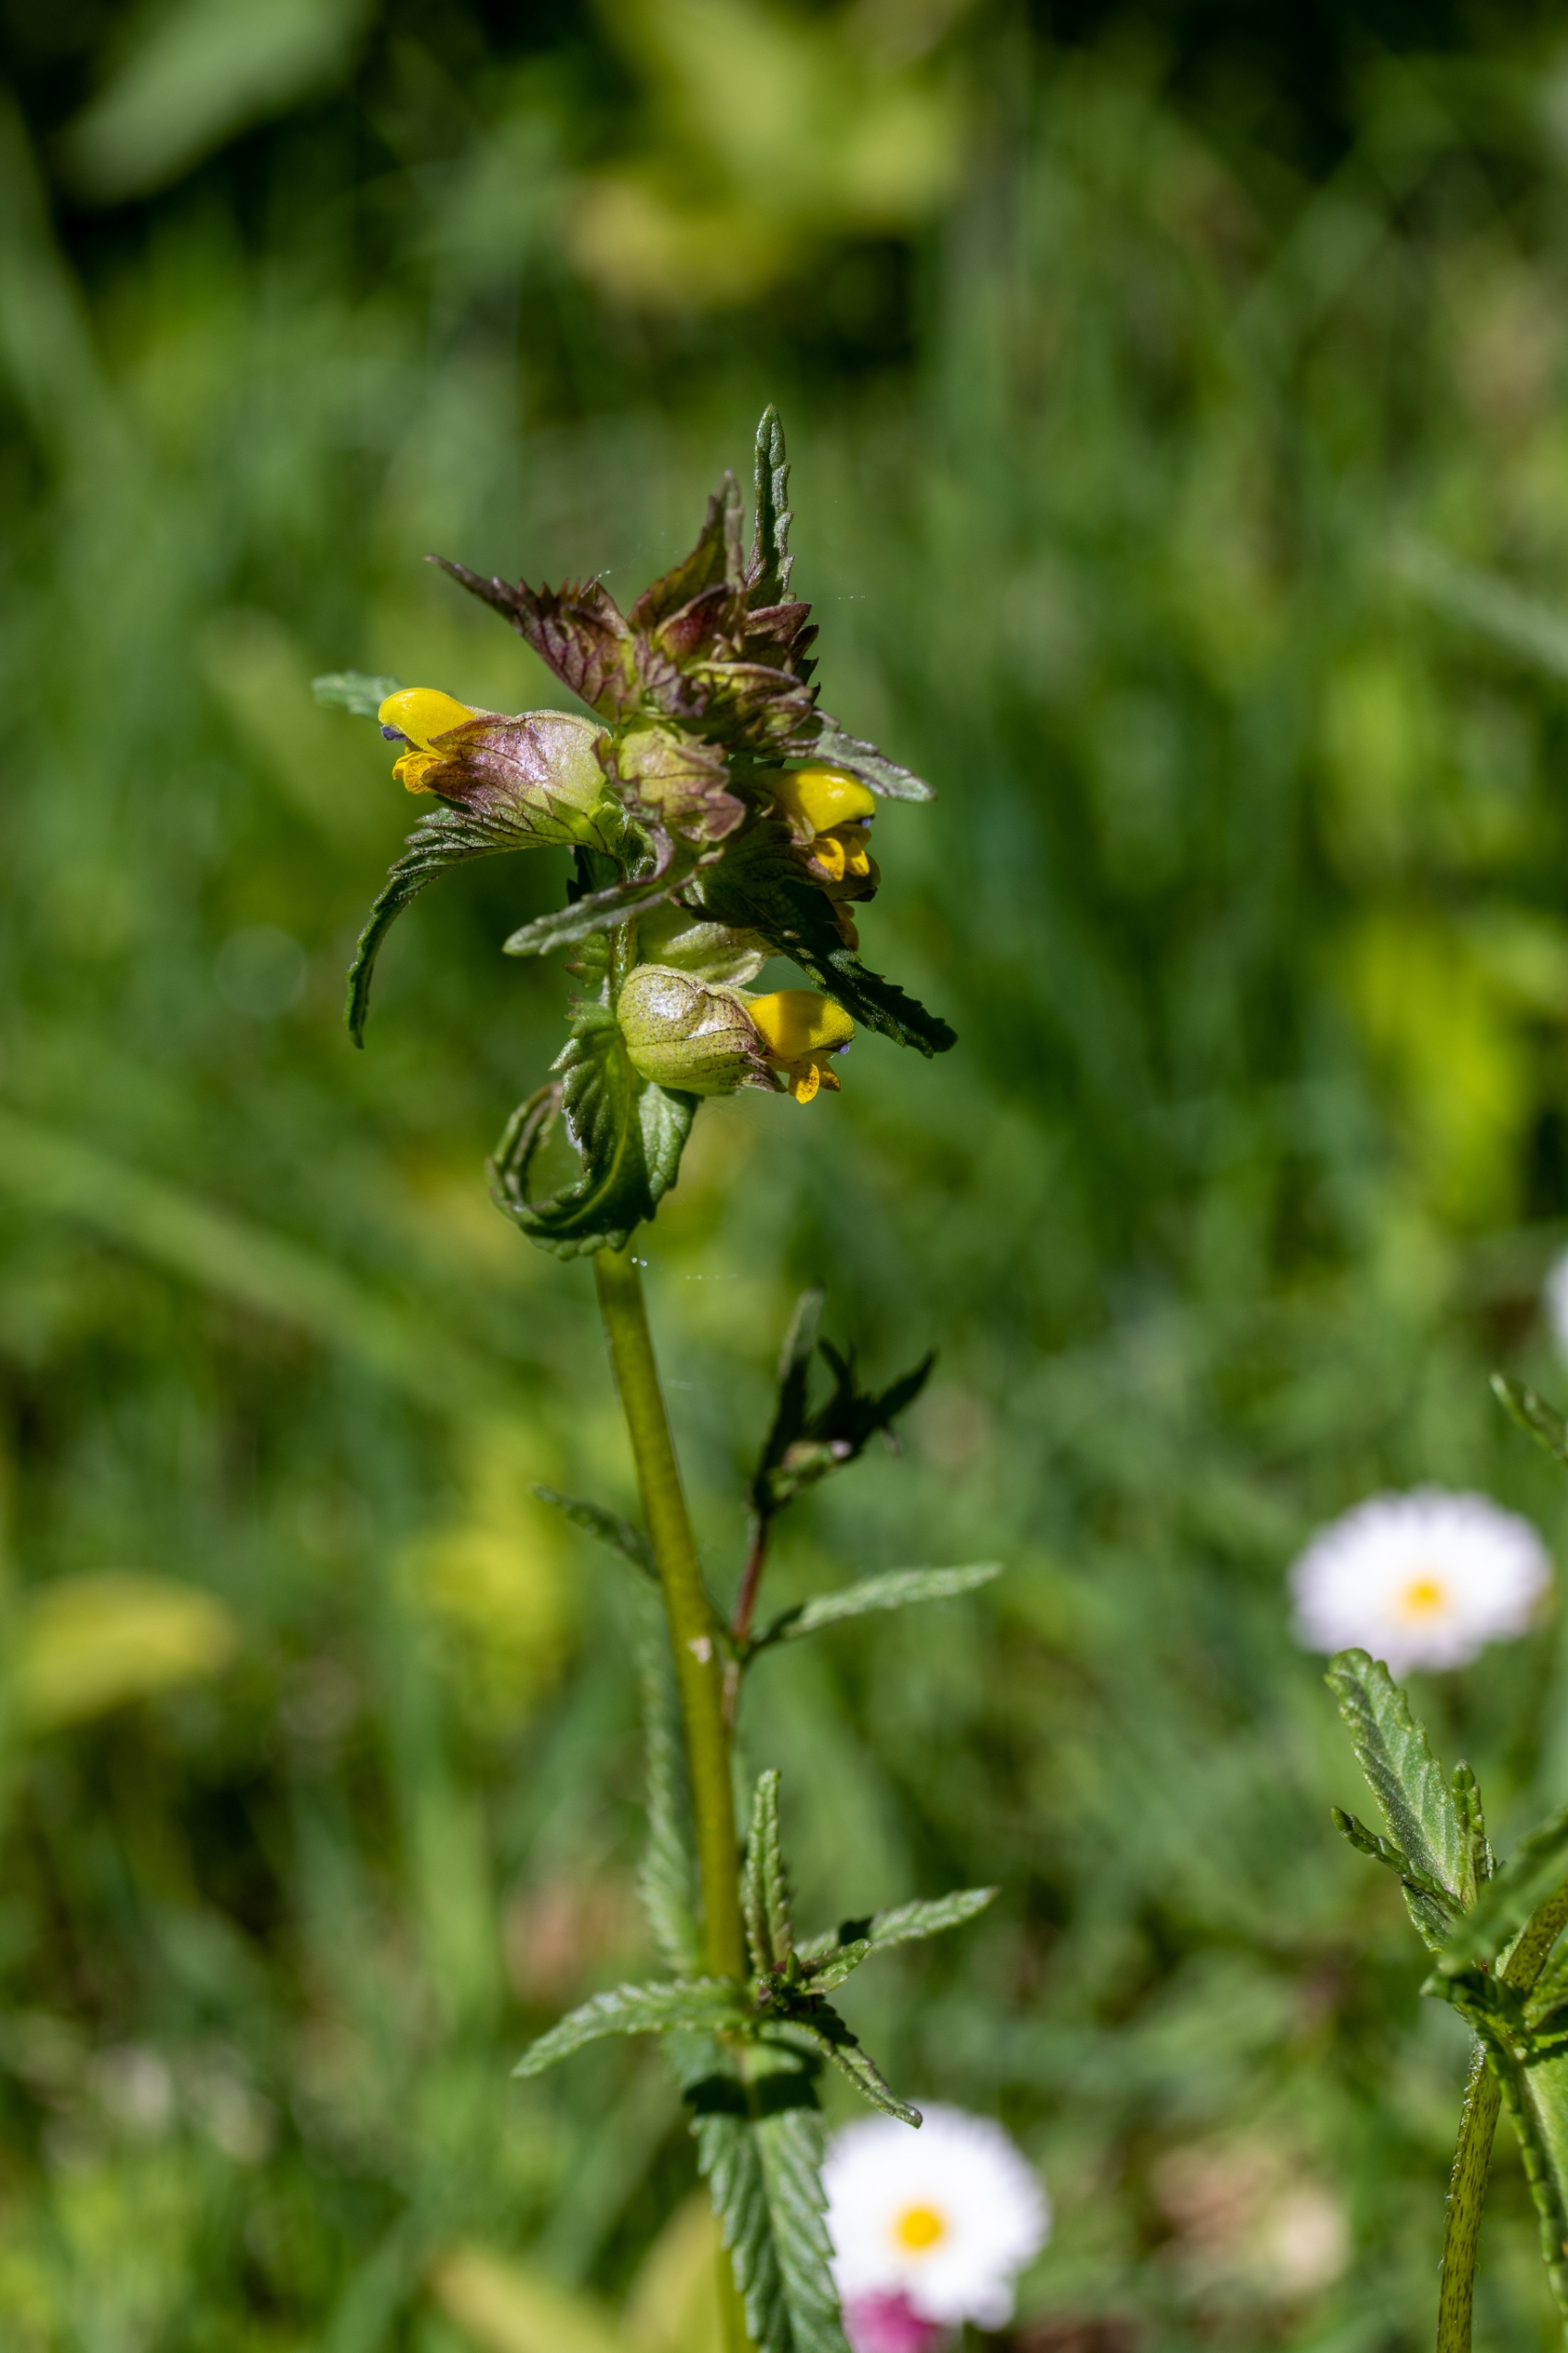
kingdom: Plantae
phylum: Tracheophyta
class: Magnoliopsida
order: Lamiales
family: Orobanchaceae
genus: Rhinanthus
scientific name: Rhinanthus minor
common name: Liden skjaller
